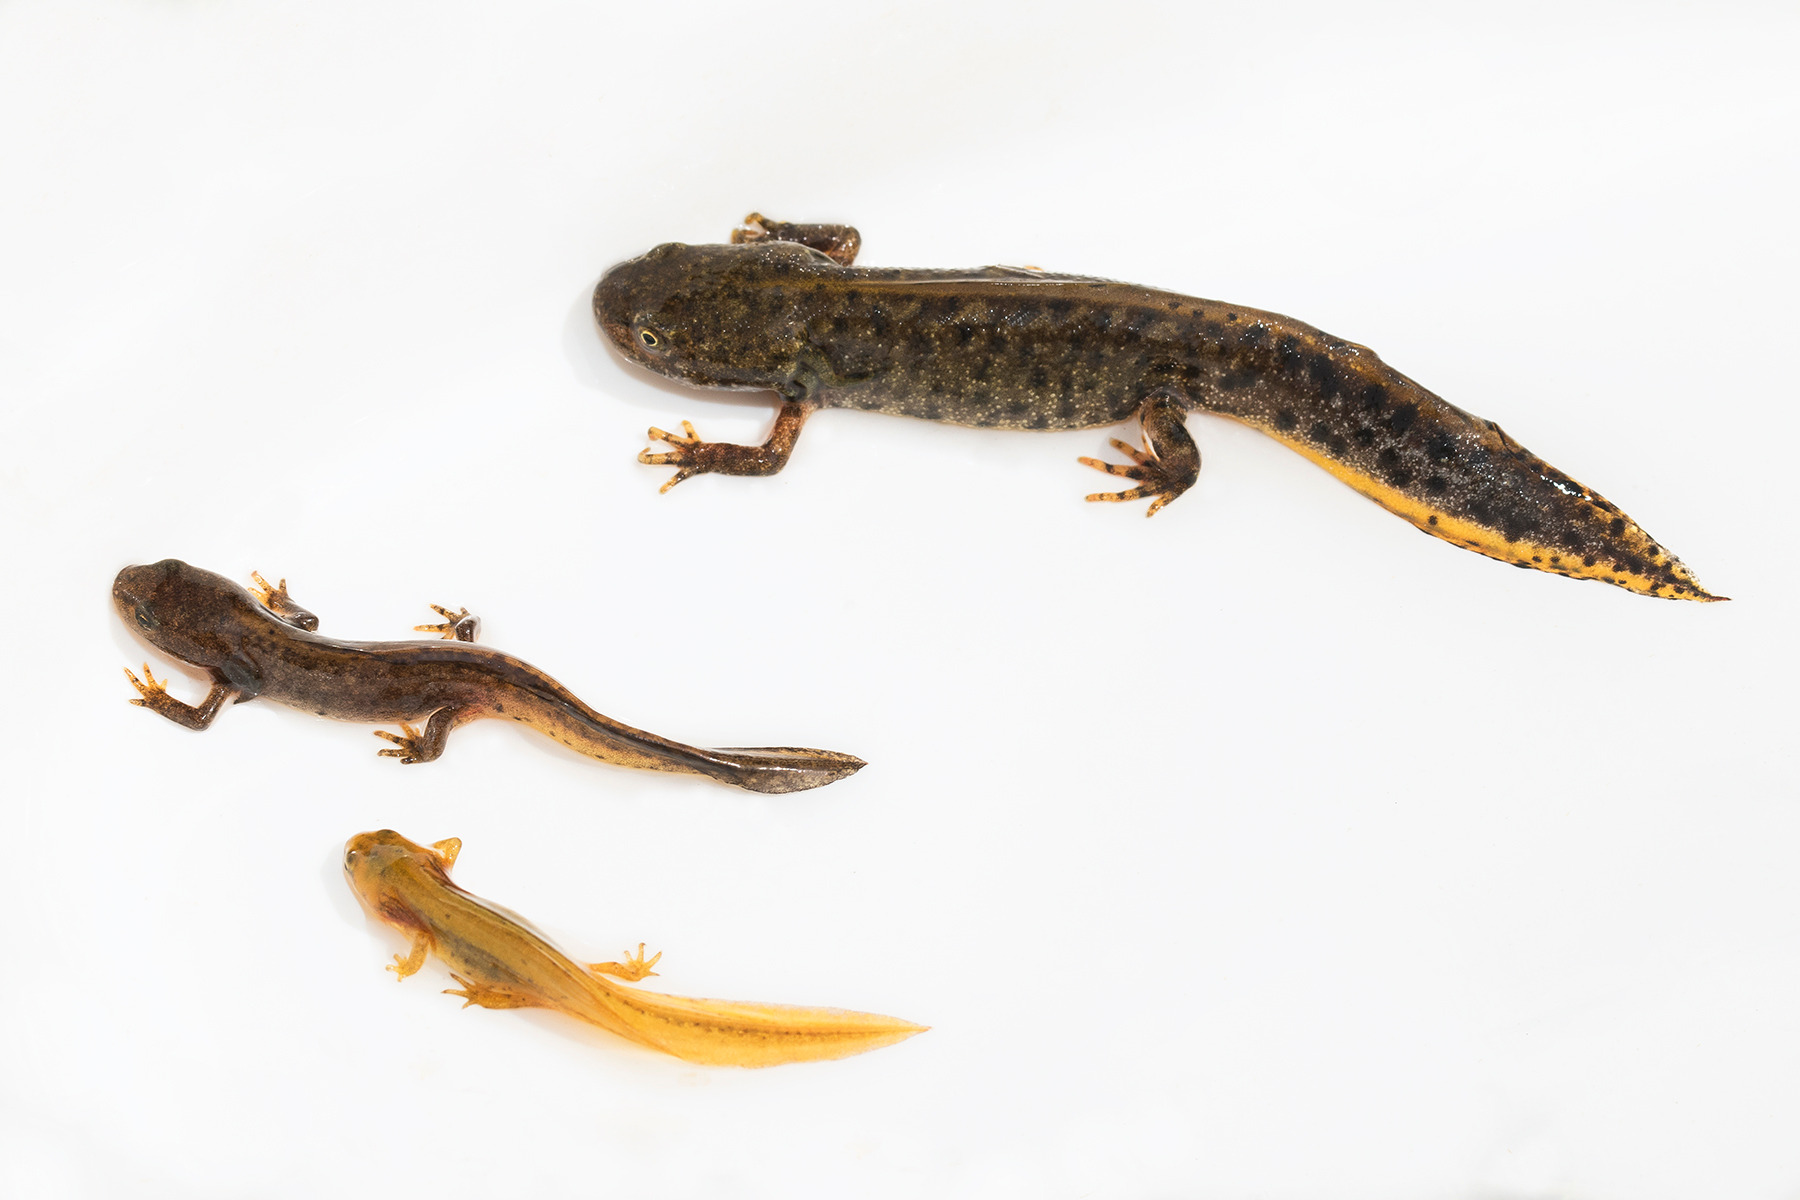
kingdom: Animalia
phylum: Chordata
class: Amphibia
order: Caudata
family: Salamandridae
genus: Lissotriton
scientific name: Lissotriton vulgaris
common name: Lille vandsalamander
